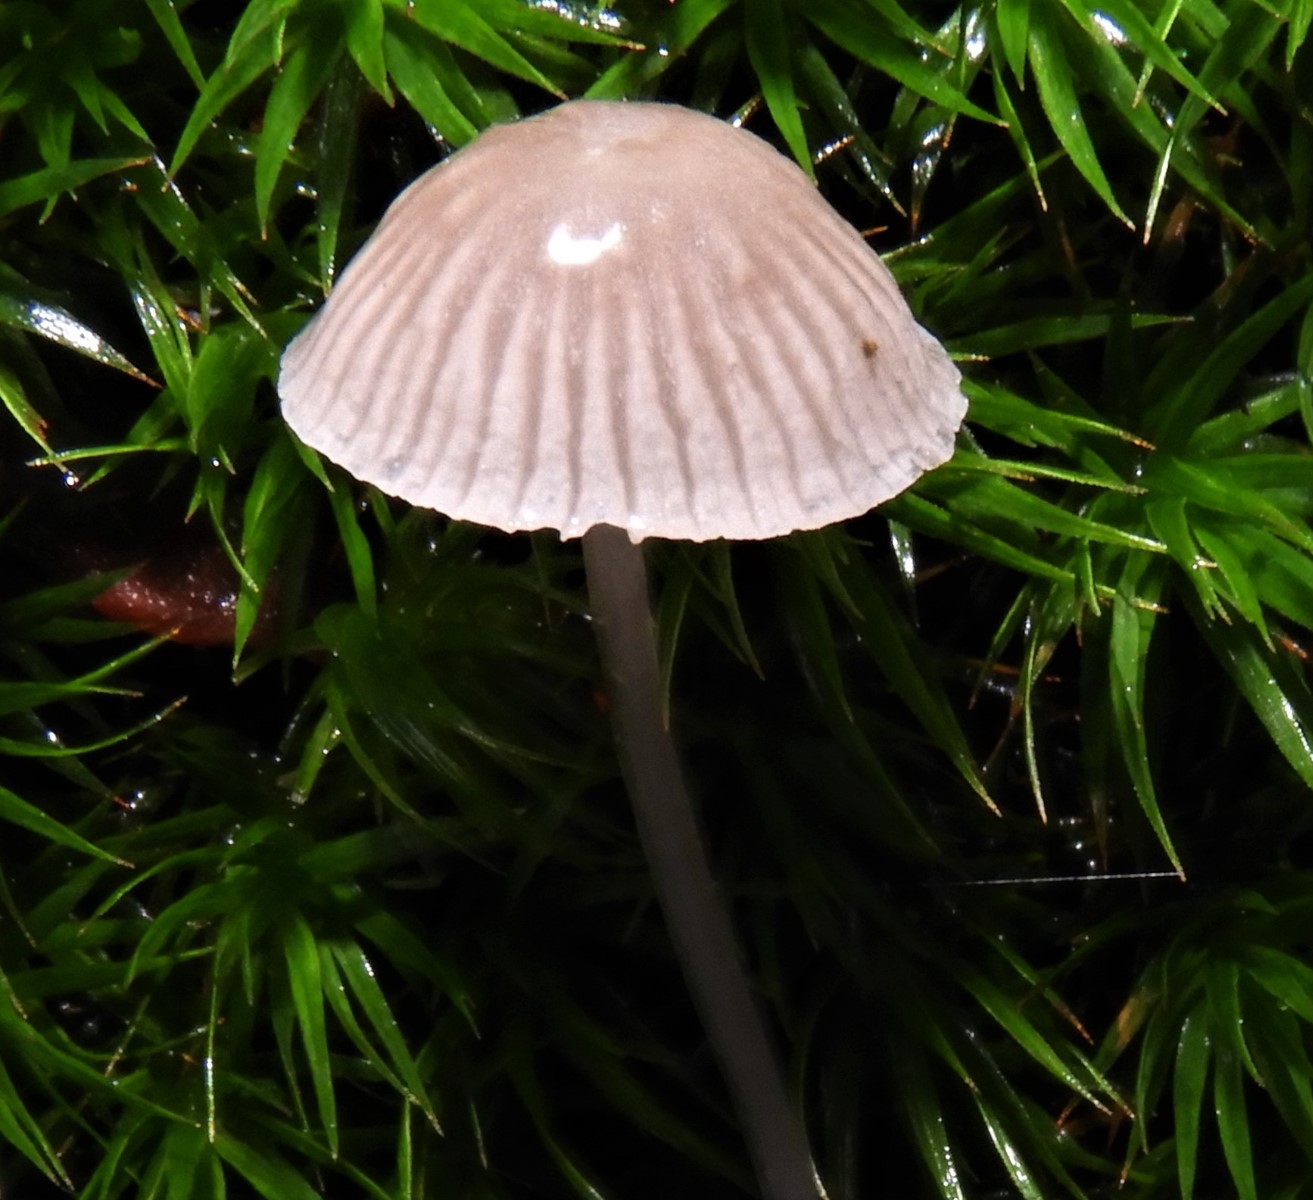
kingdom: Fungi
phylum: Basidiomycota
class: Agaricomycetes
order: Agaricales
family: Mycenaceae
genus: Mycena
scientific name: Mycena cinerella
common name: mel-huesvamp
